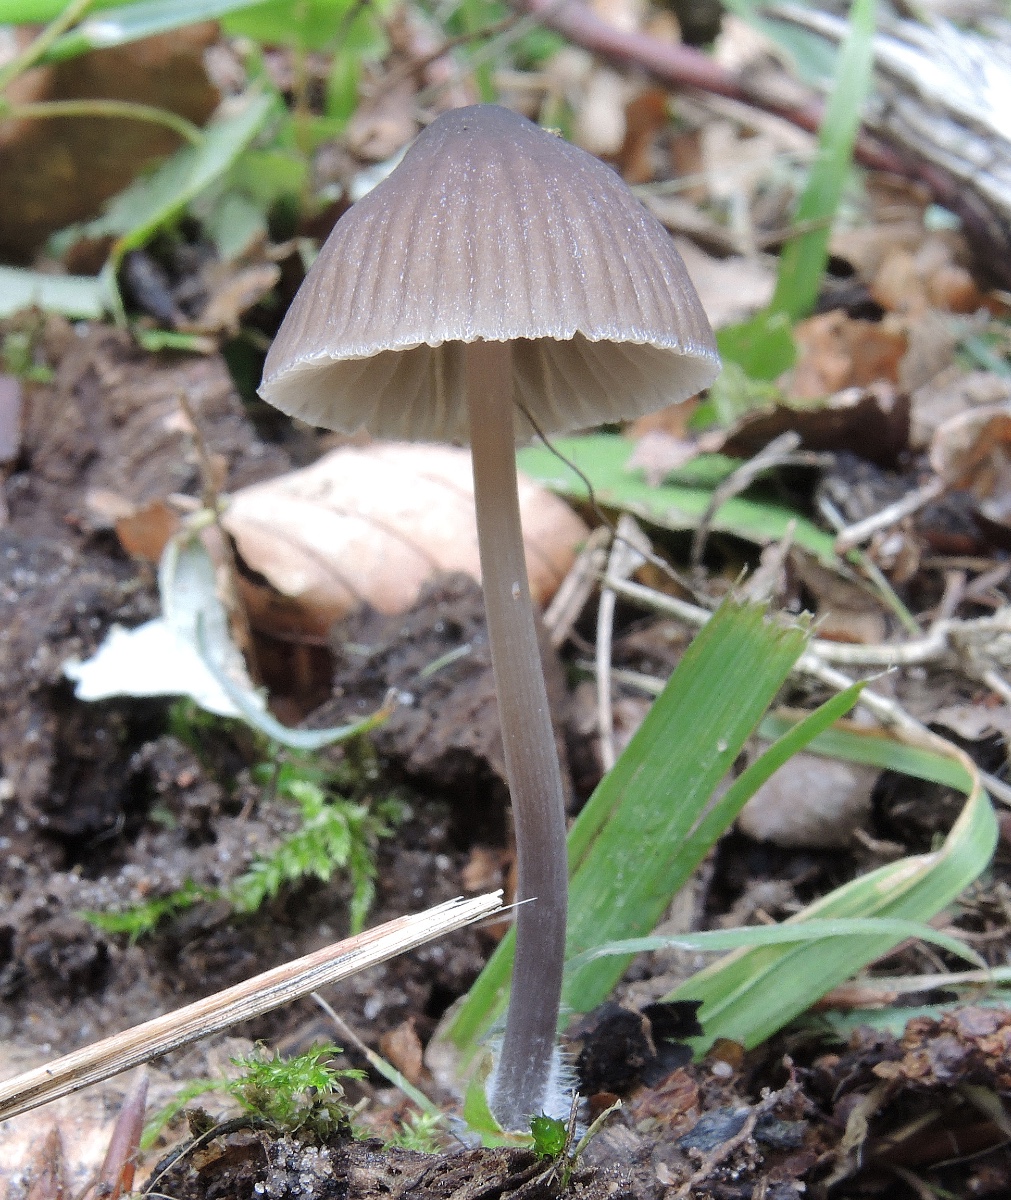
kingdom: Fungi
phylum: Basidiomycota
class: Agaricomycetes
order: Agaricales
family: Mycenaceae
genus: Mycena
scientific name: Mycena abramsii
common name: sommer-huesvamp
